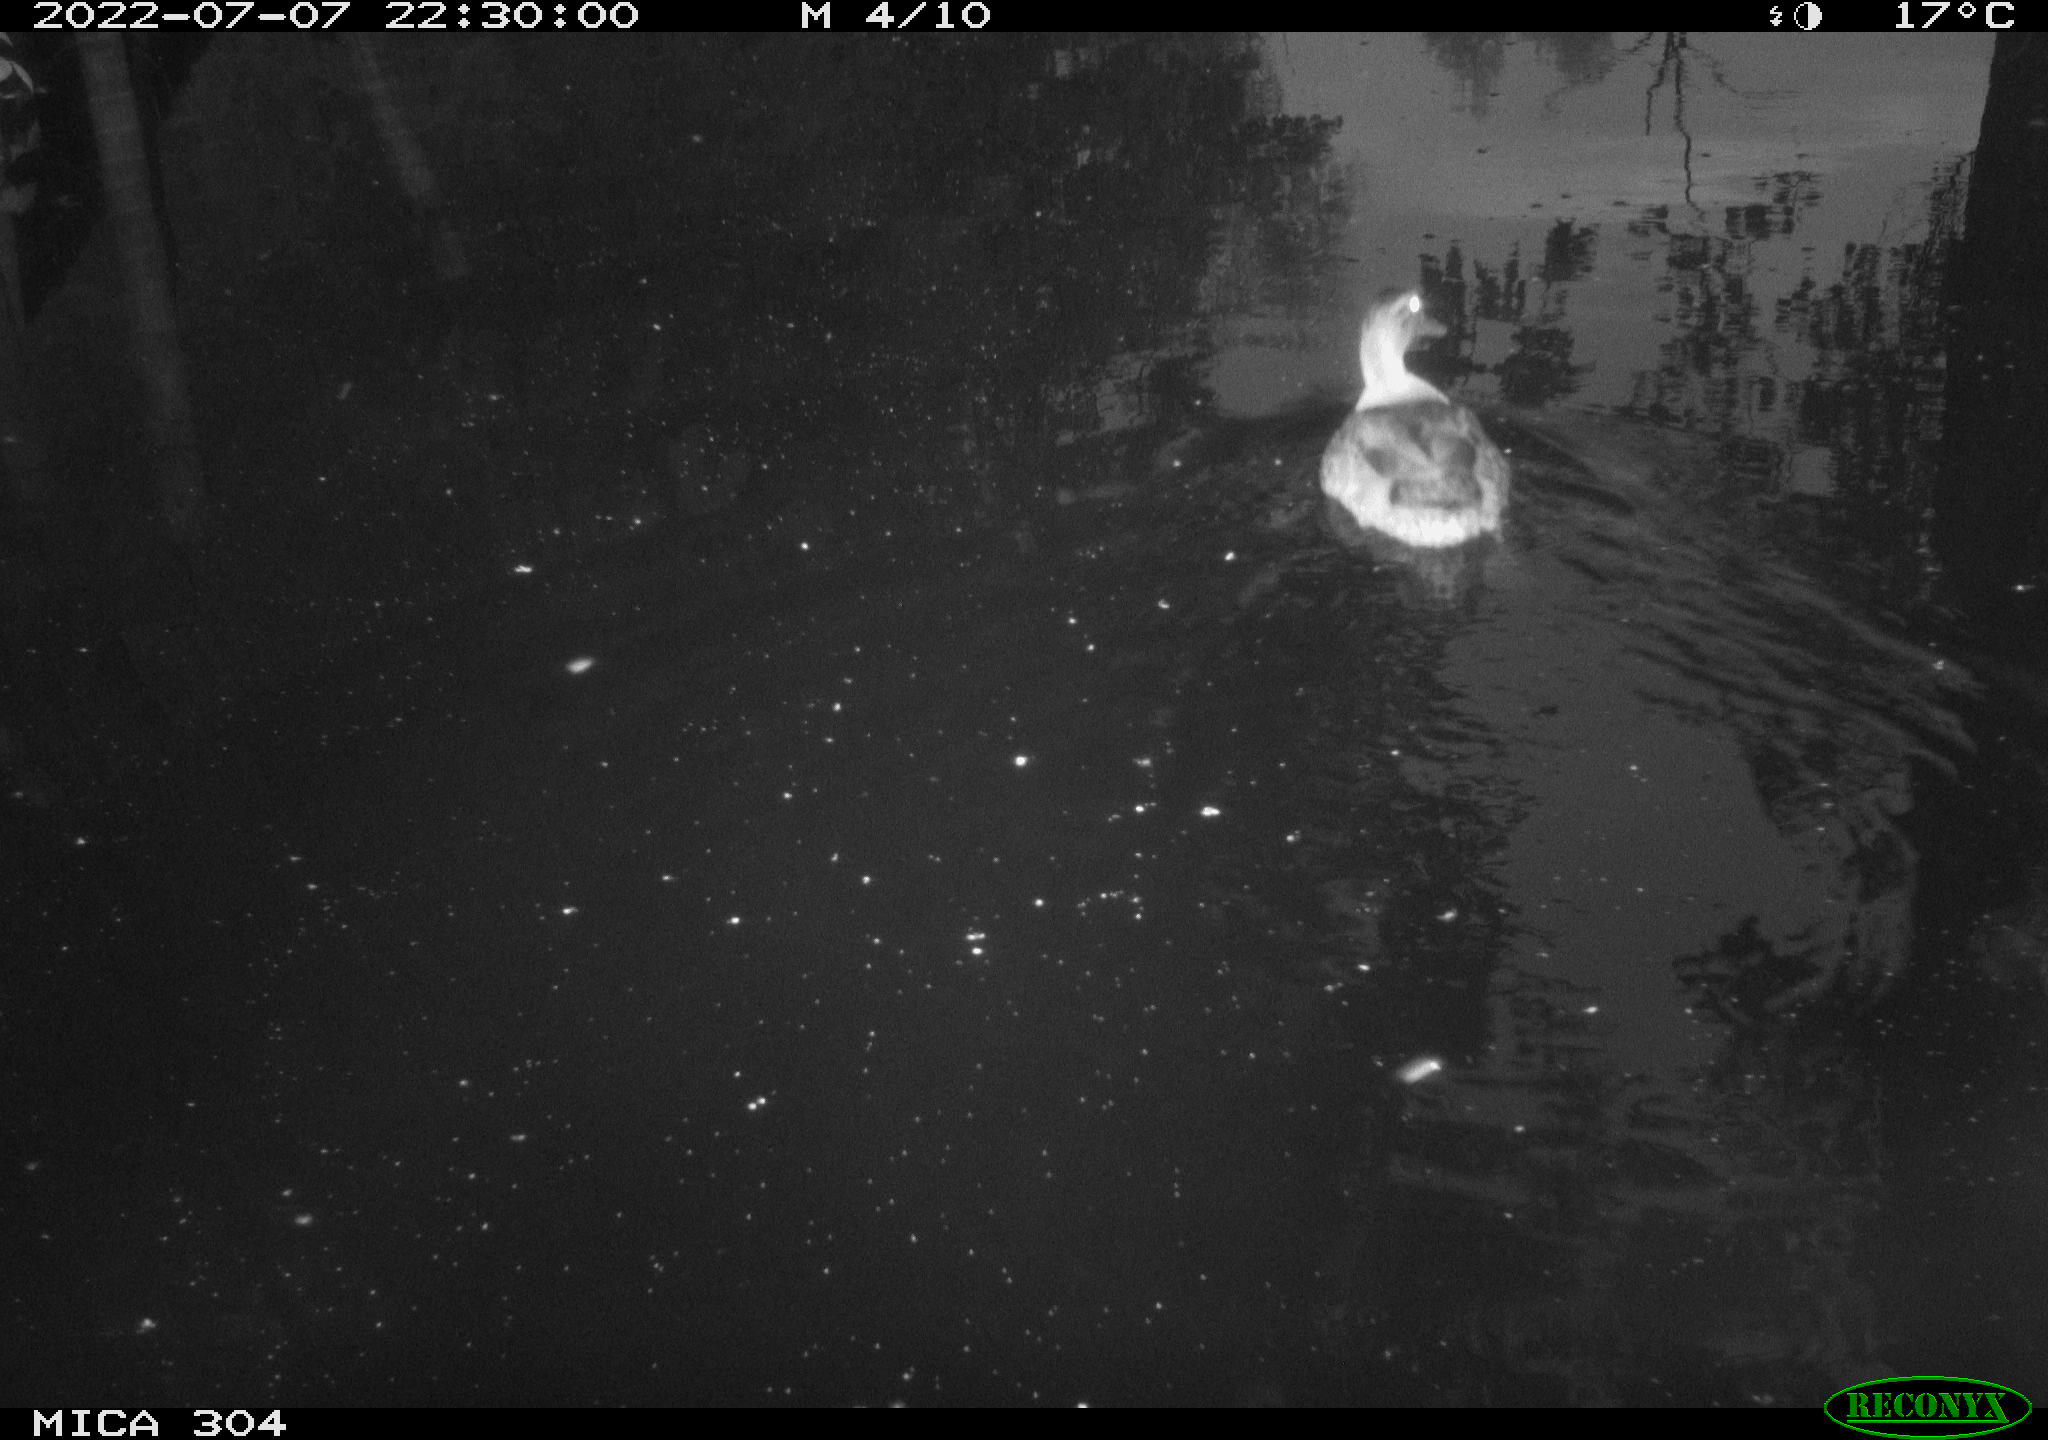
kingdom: Animalia
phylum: Chordata
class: Aves
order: Anseriformes
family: Anatidae
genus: Anas
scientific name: Anas platyrhynchos
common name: Mallard
